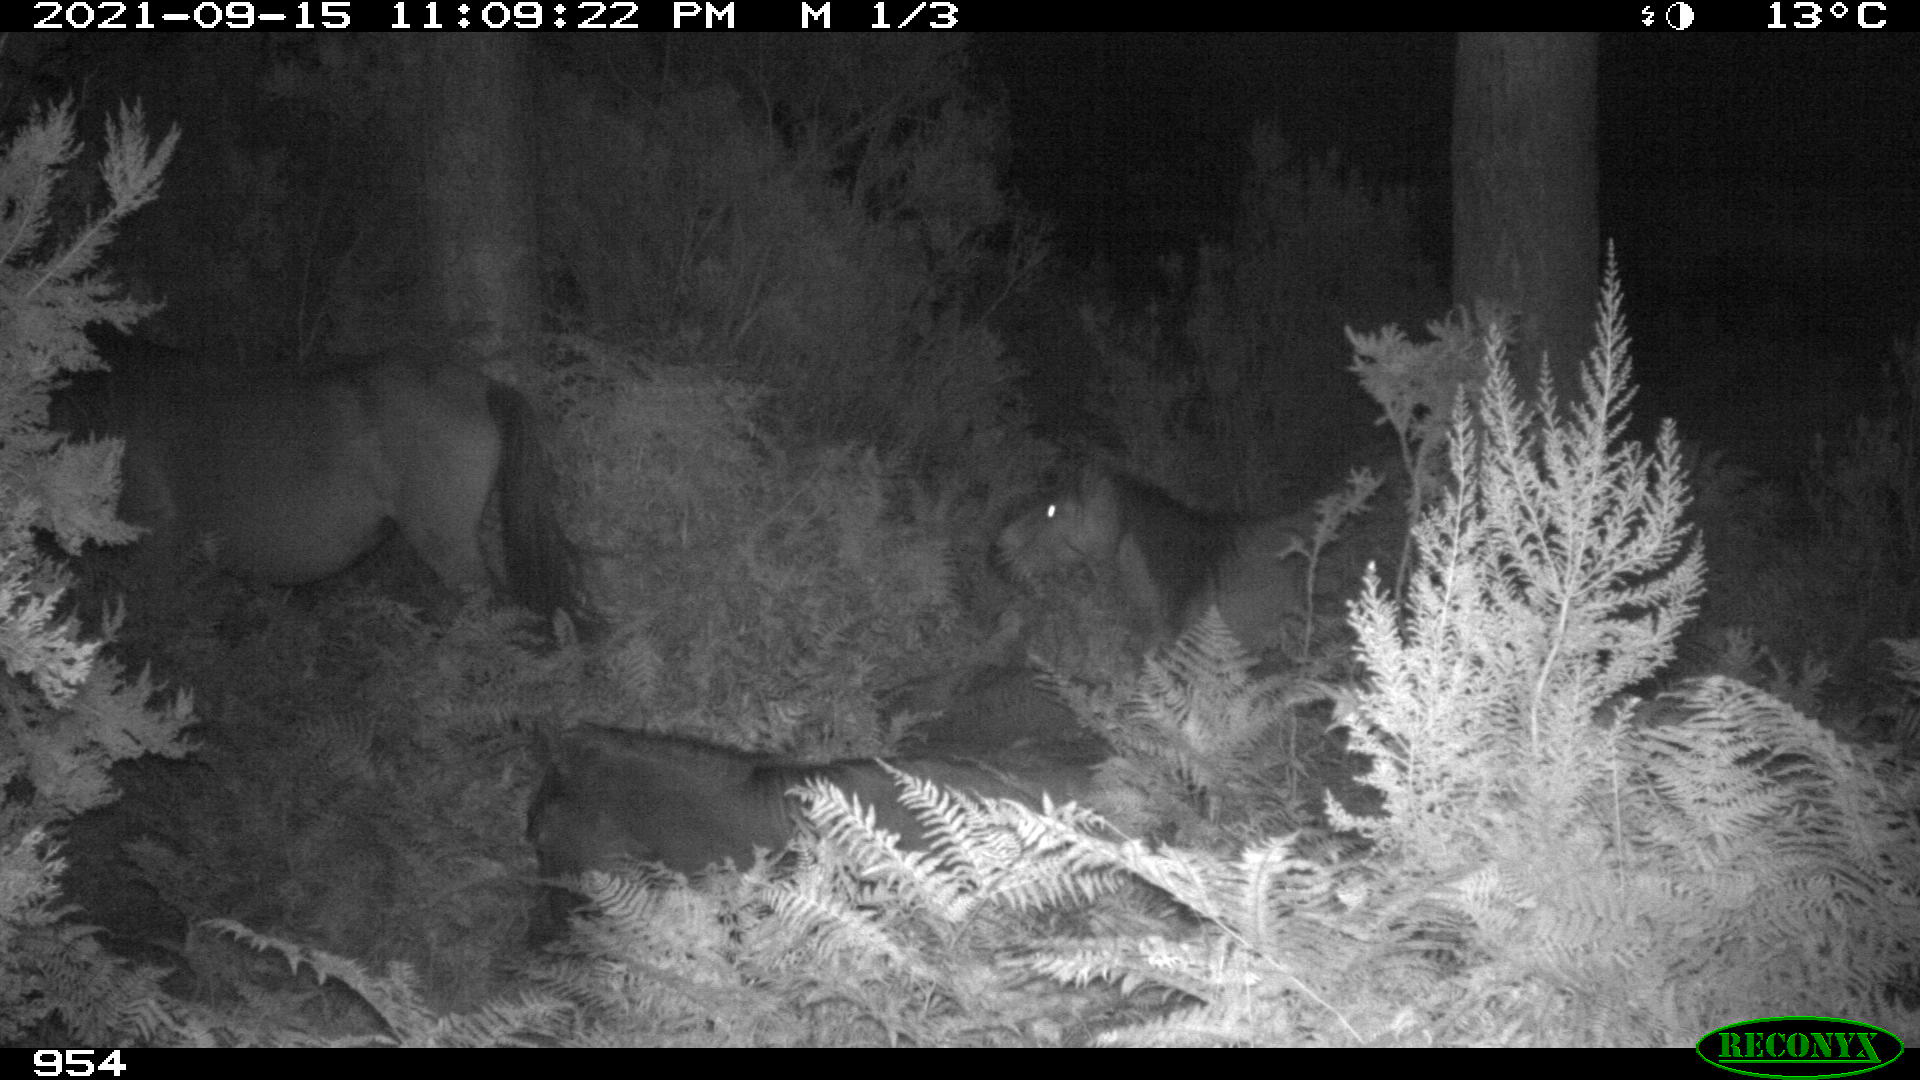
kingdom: Animalia
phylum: Chordata
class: Mammalia
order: Perissodactyla
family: Equidae
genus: Equus
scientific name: Equus caballus
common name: Horse
